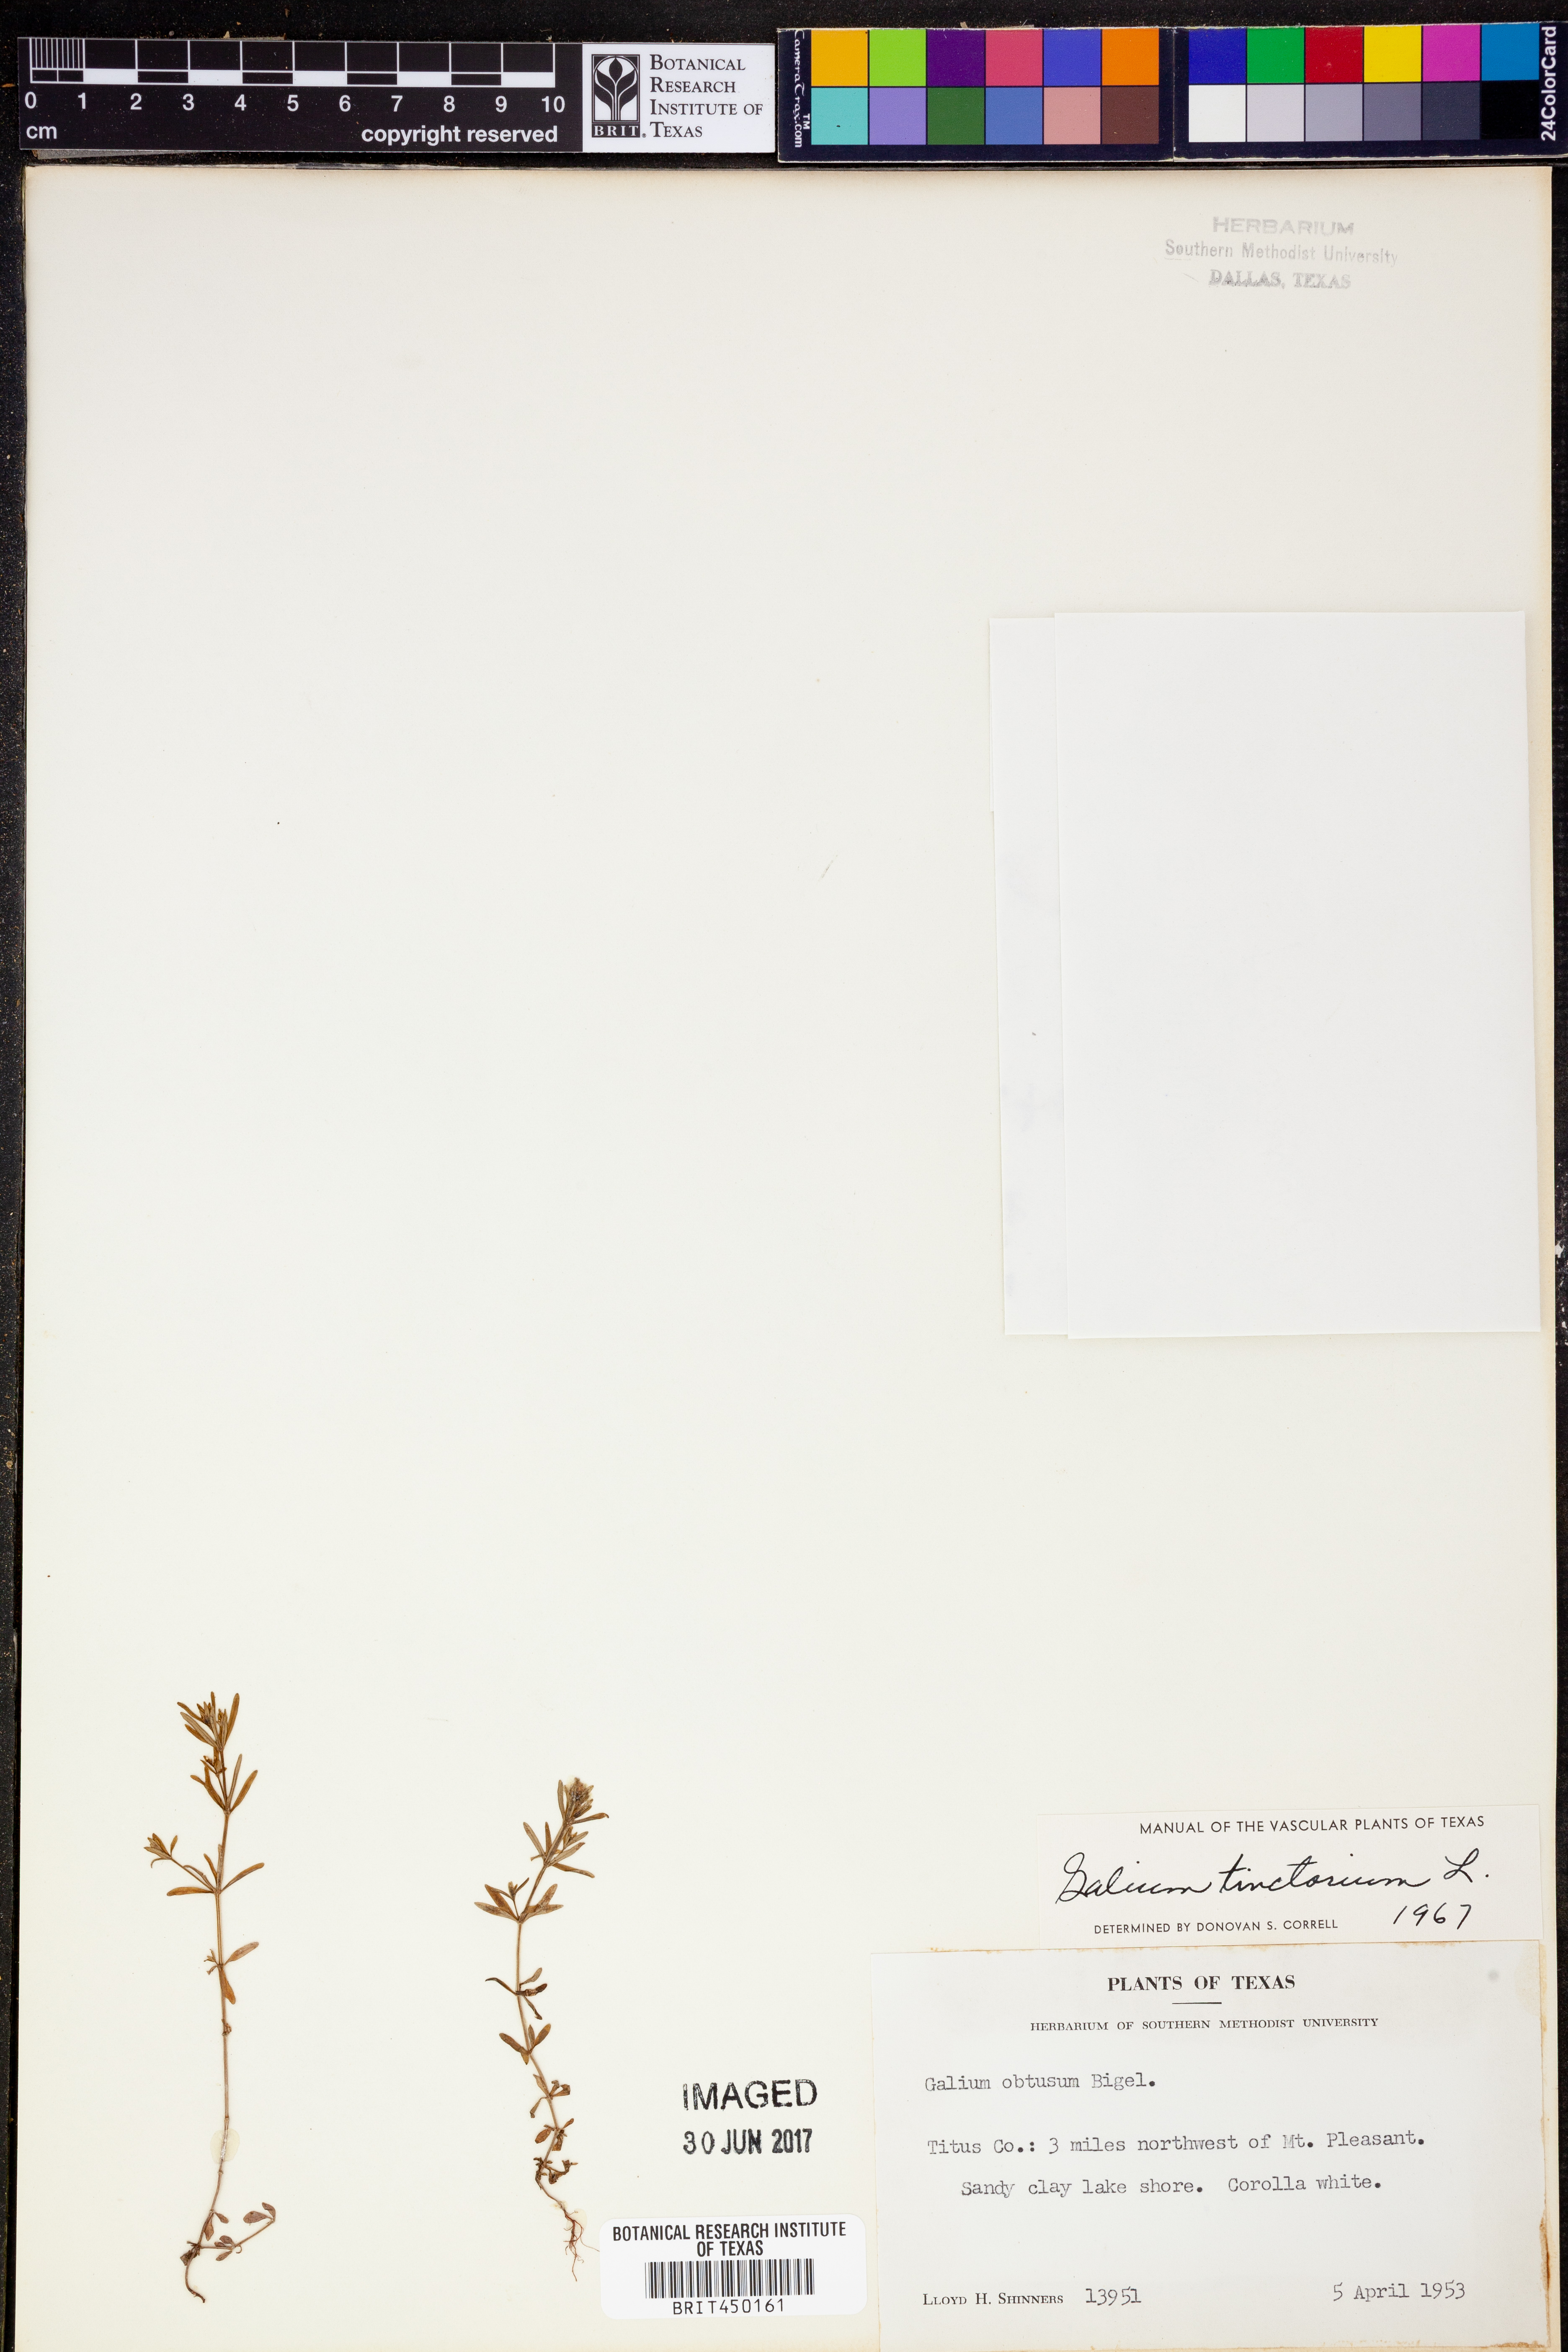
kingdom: Plantae
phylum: Tracheophyta
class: Magnoliopsida
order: Gentianales
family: Rubiaceae
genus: Asperula
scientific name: Asperula tinctoria
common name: Dyer's woodruff
